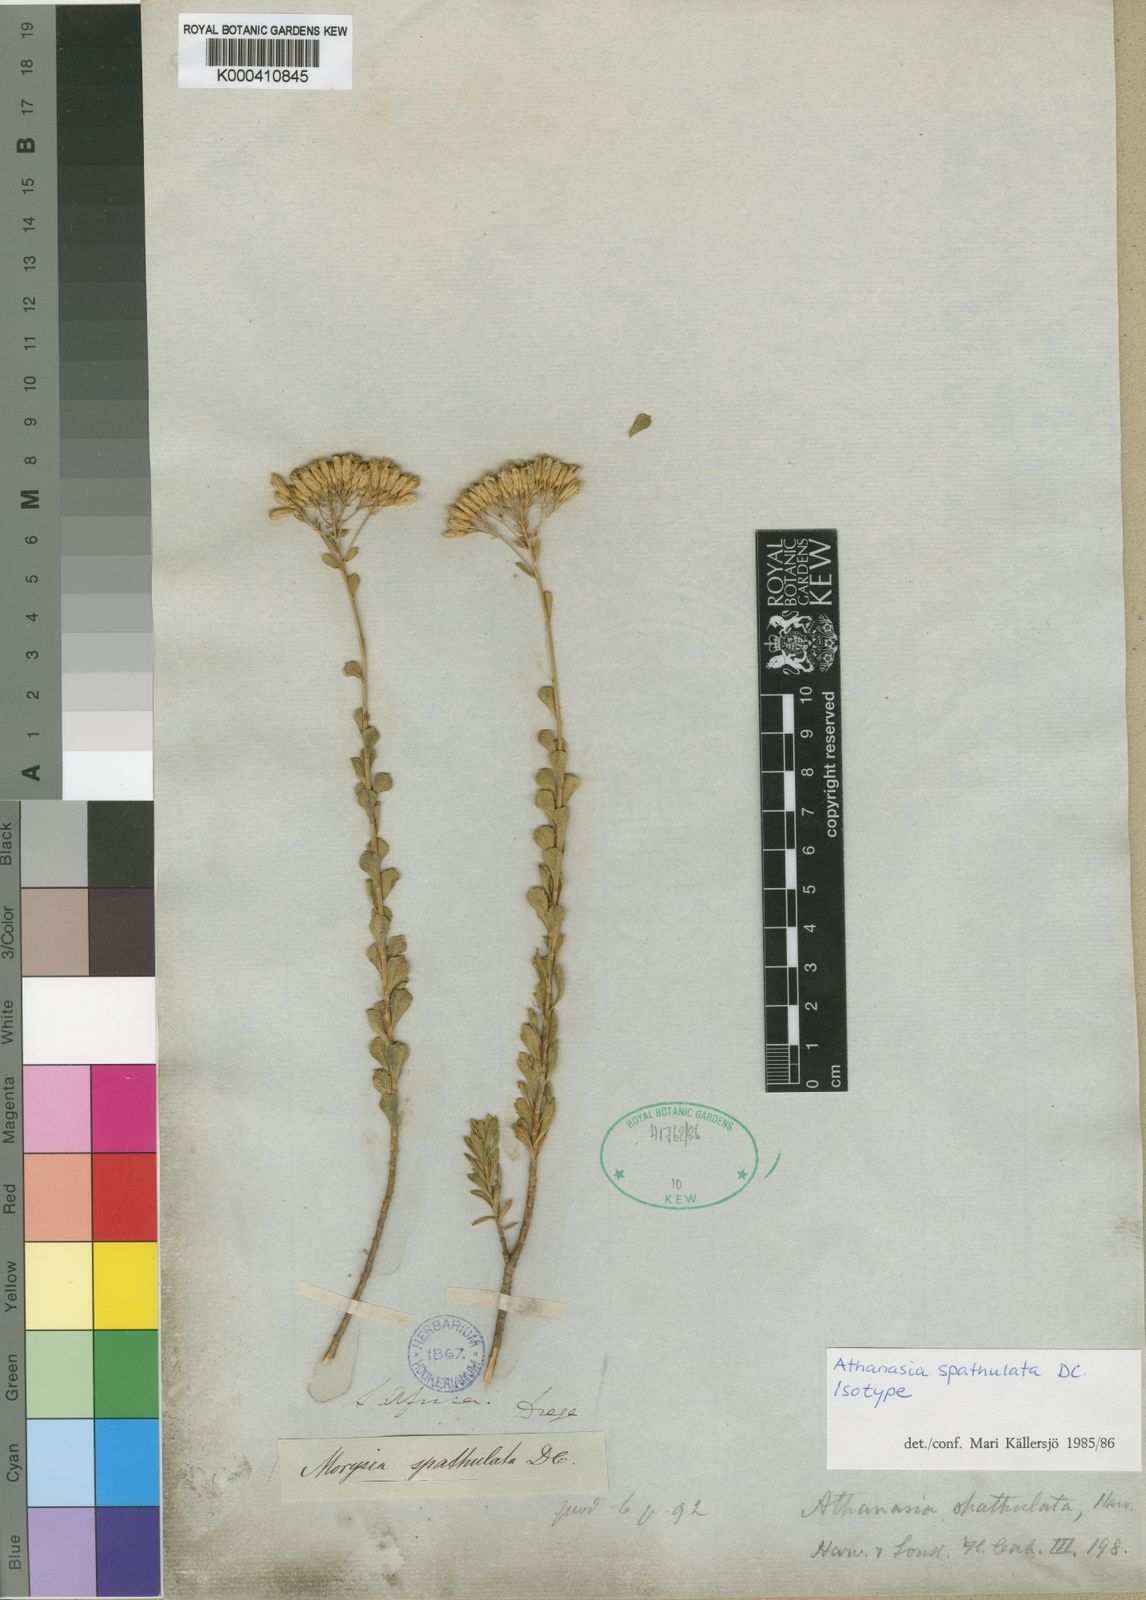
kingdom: Plantae
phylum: Tracheophyta
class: Magnoliopsida
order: Asterales
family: Asteraceae
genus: Athanasia
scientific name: Athanasia spathulata
